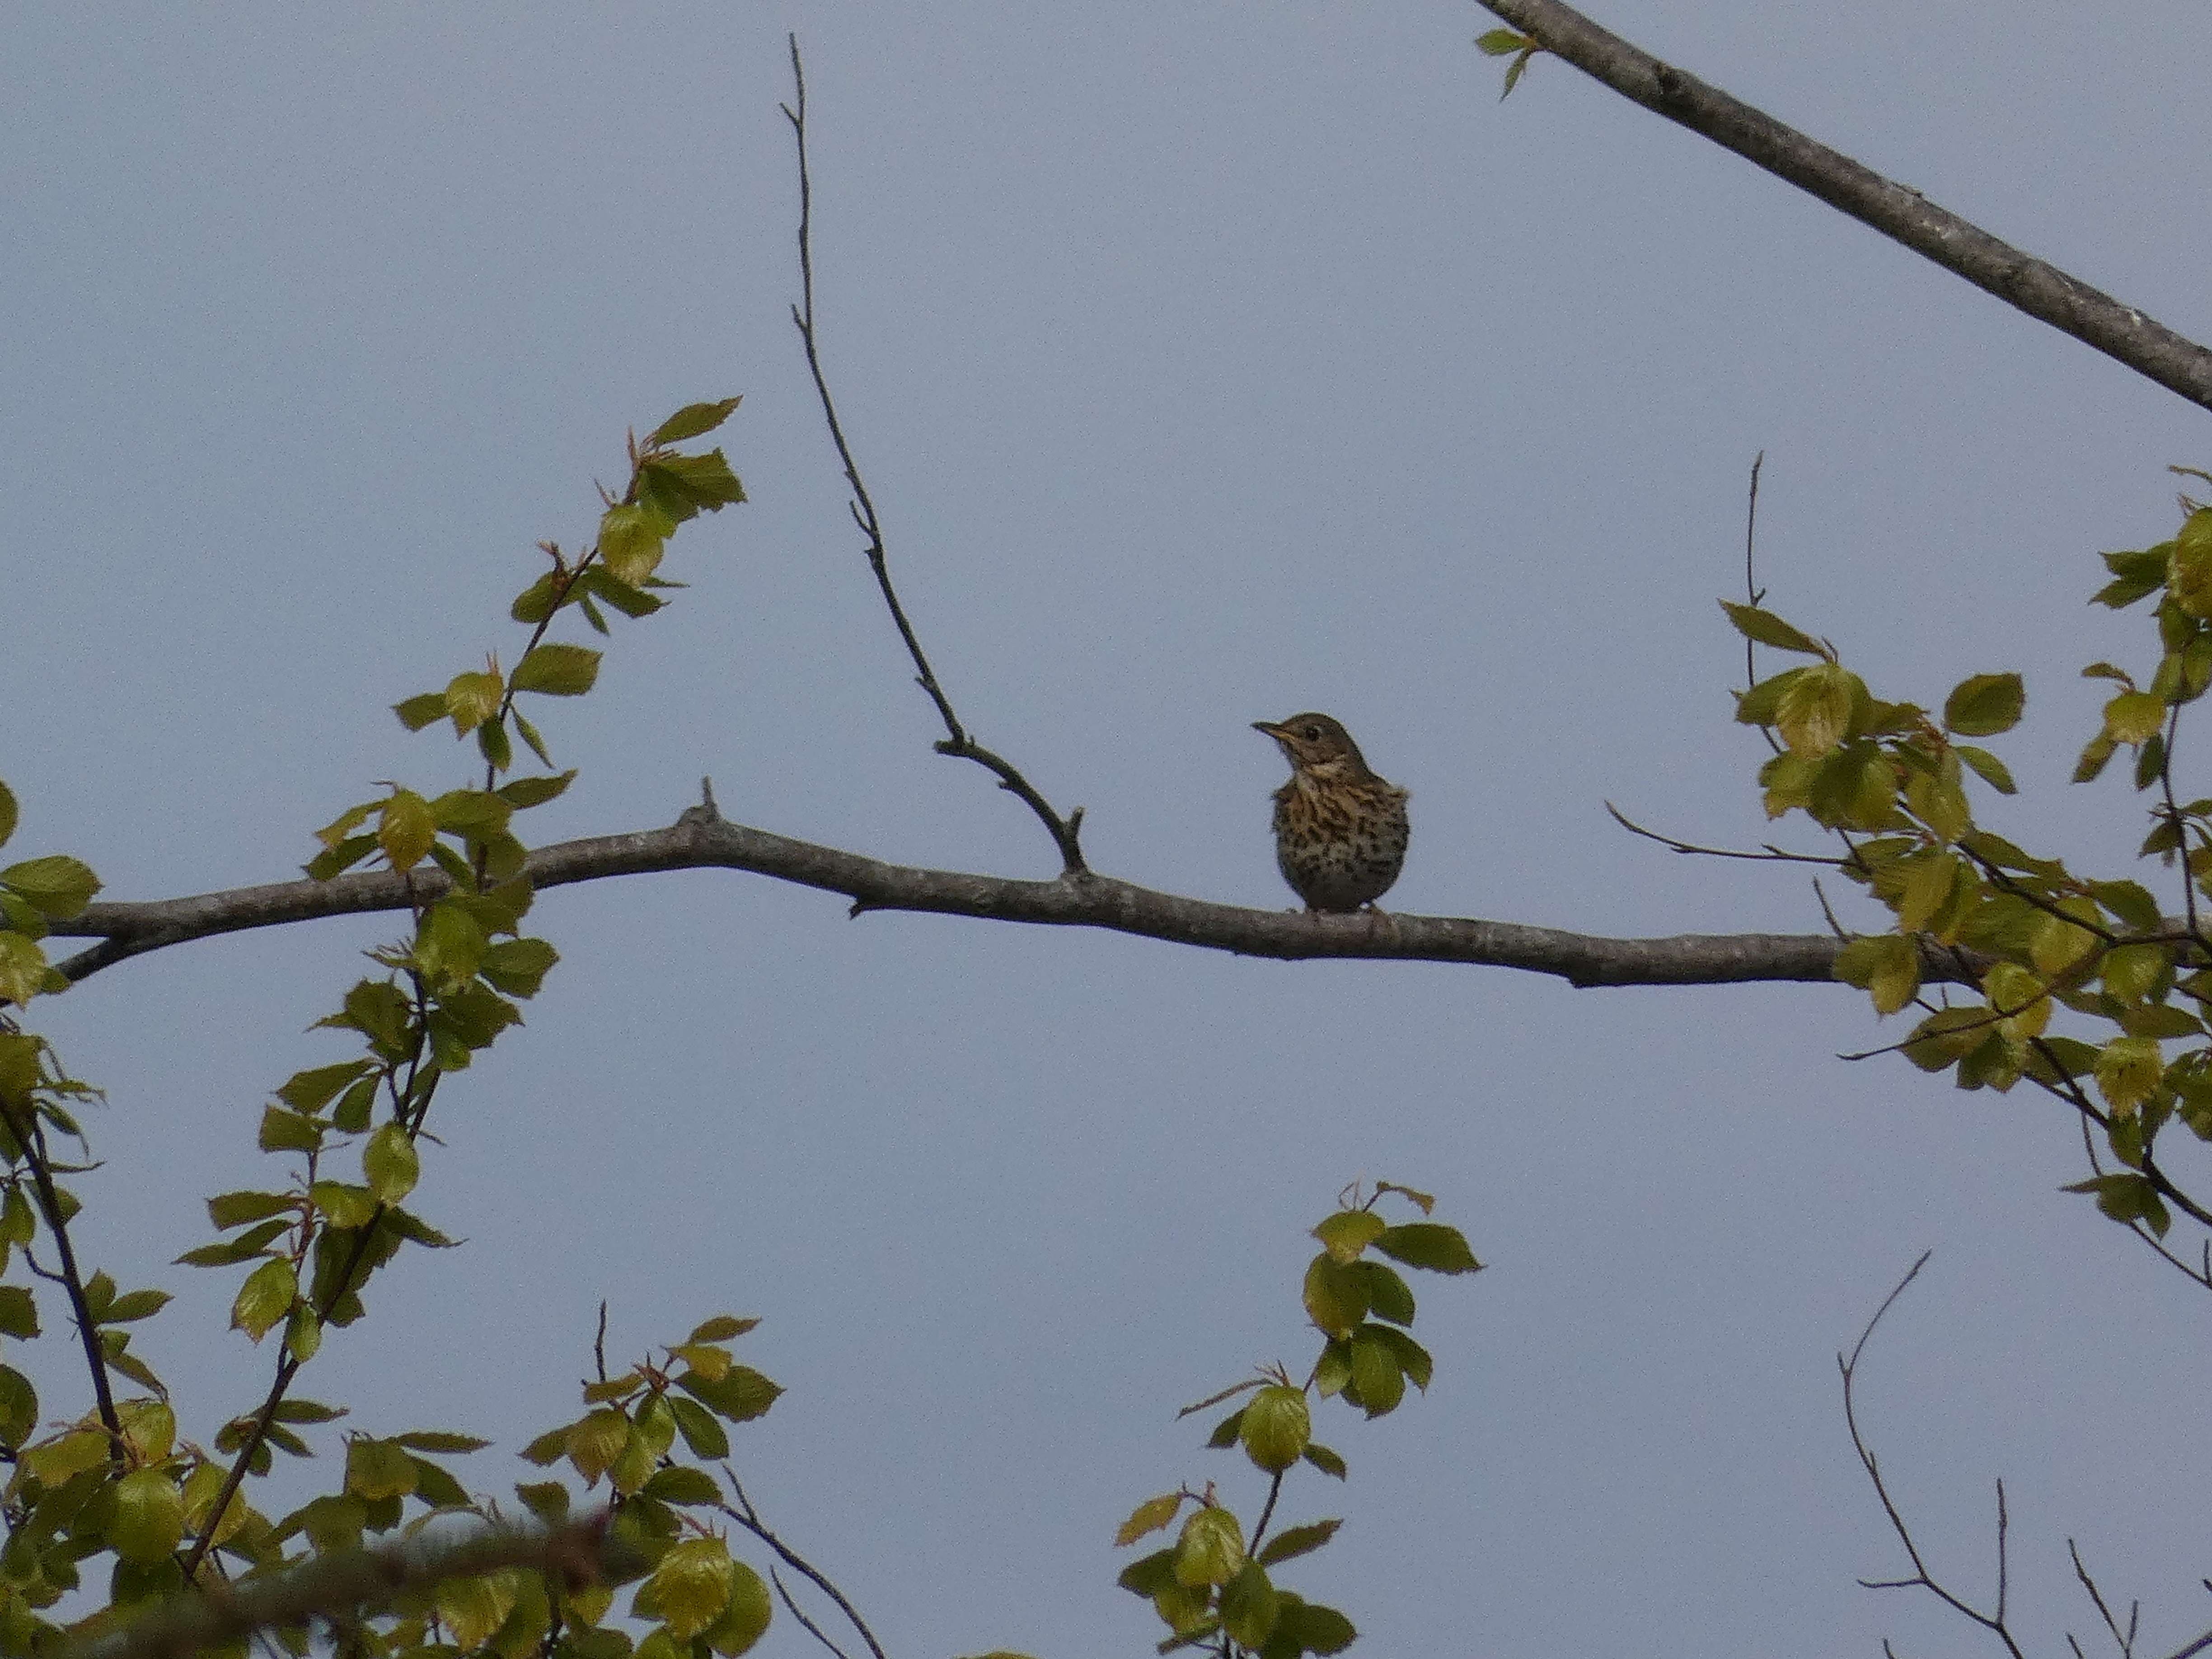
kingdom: Animalia
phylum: Chordata
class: Aves
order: Passeriformes
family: Turdidae
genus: Turdus
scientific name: Turdus philomelos
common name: Sangdrossel
